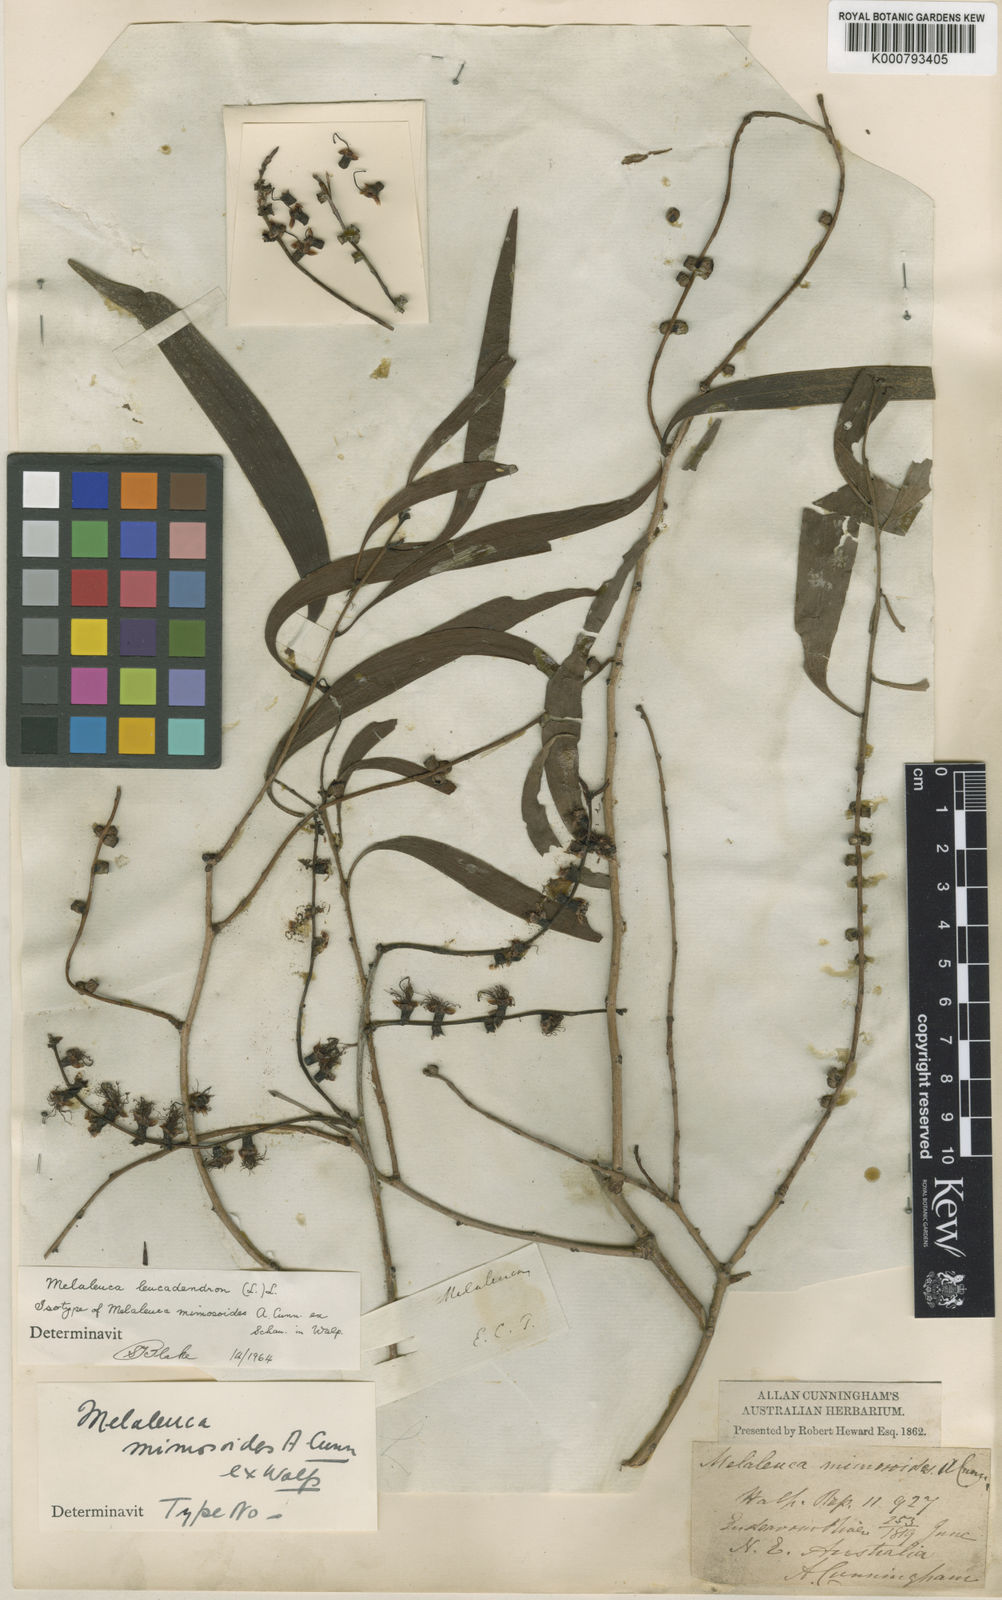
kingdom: Plantae
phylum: Tracheophyta
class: Magnoliopsida
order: Myrtales
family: Myrtaceae
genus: Melaleuca
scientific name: Melaleuca leucadendra
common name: Weeping paperbark
